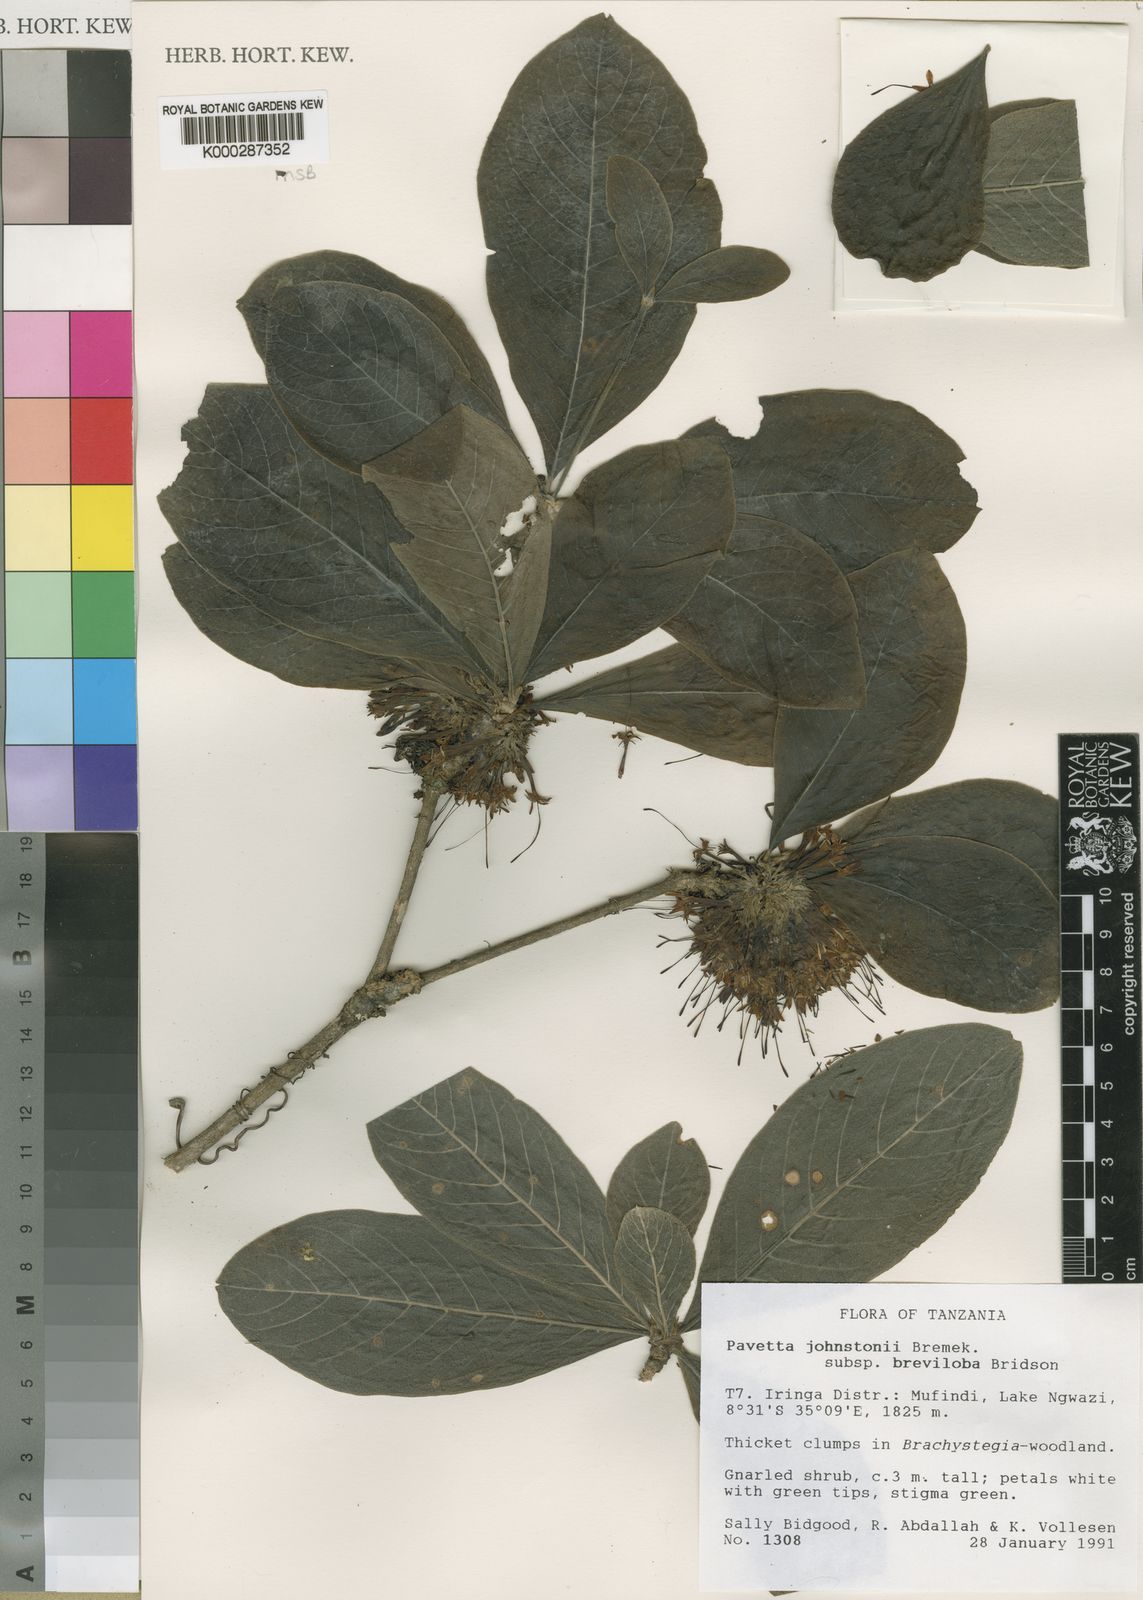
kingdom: Plantae
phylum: Tracheophyta
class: Magnoliopsida
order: Gentianales
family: Rubiaceae
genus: Pavetta
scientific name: Pavetta johnstonii
